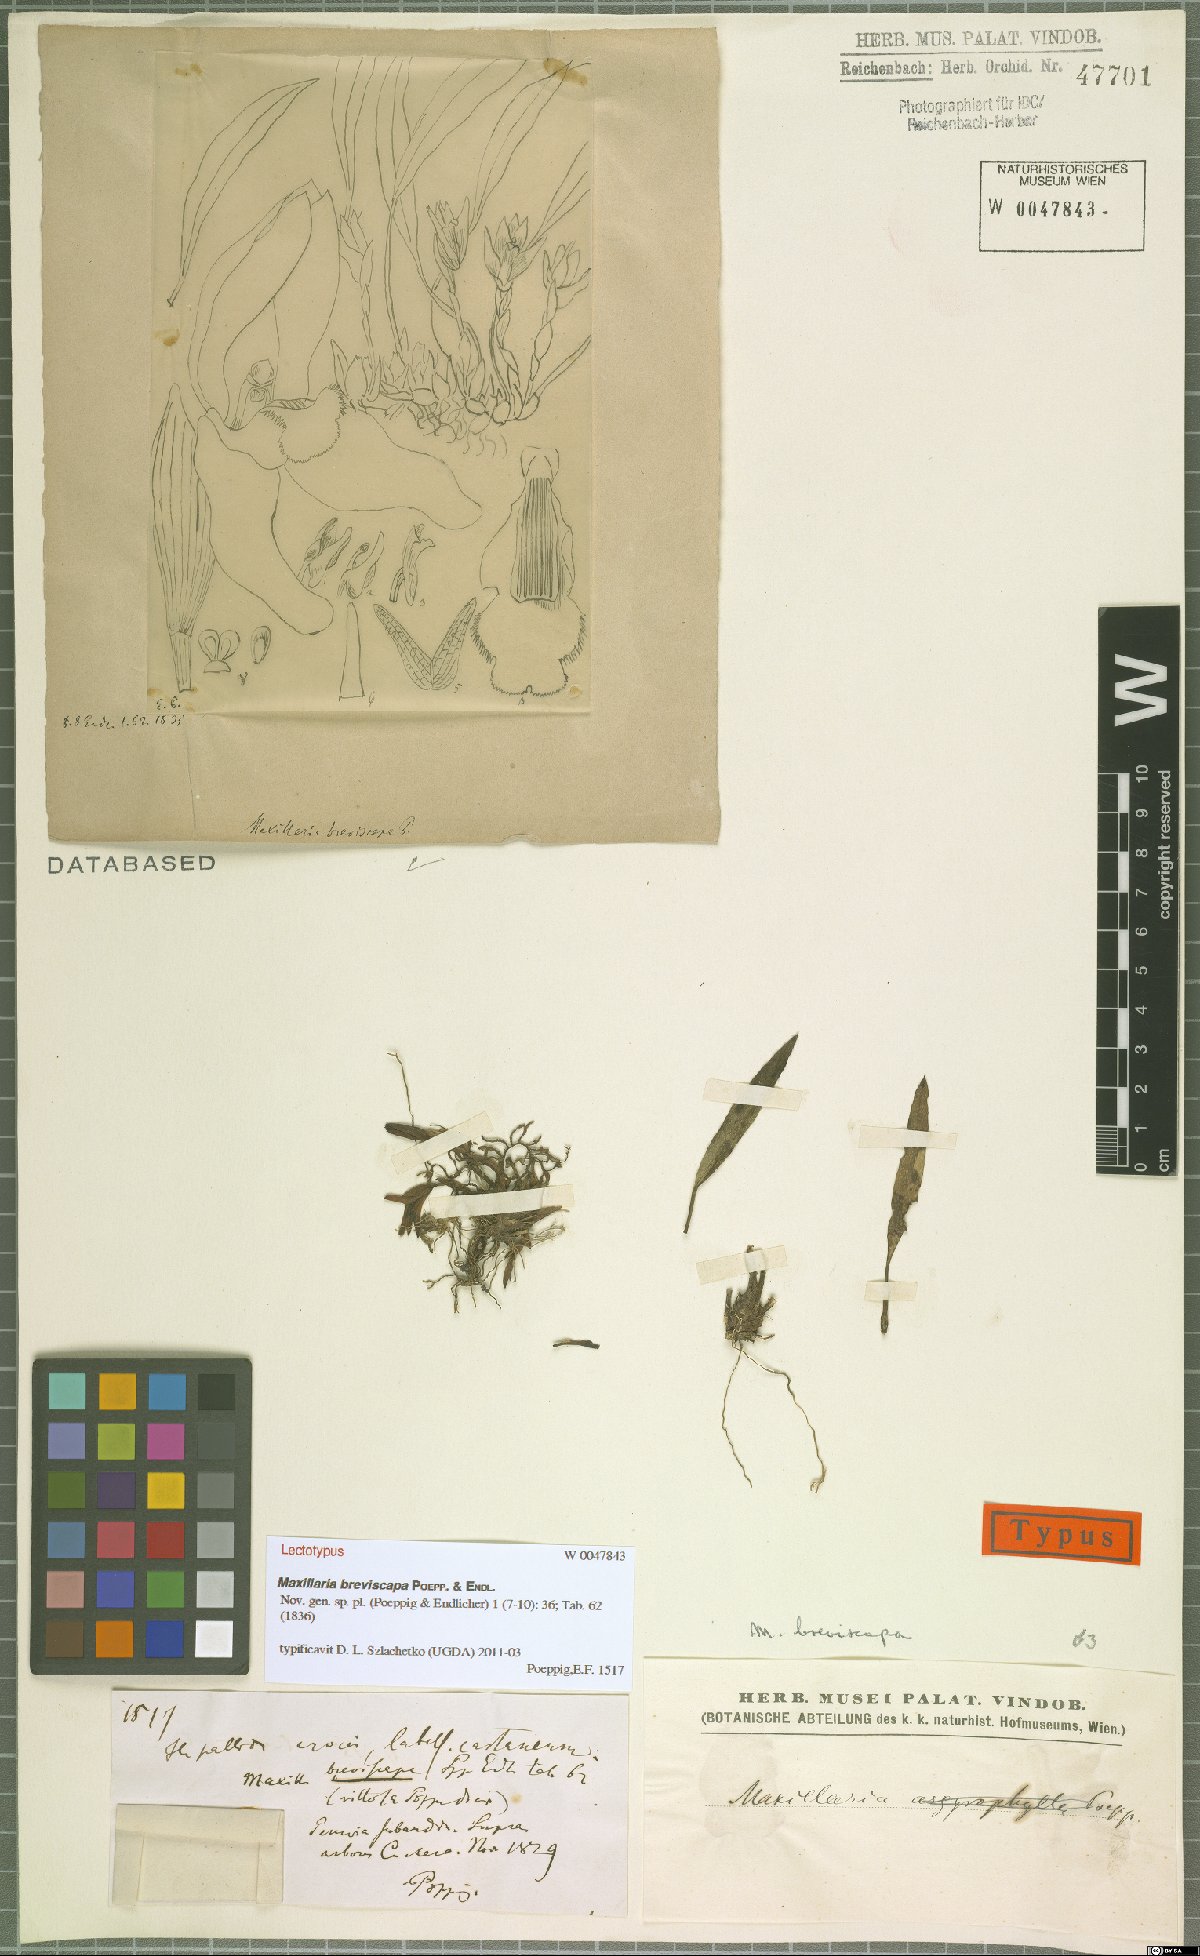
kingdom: Plantae
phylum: Tracheophyta
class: Liliopsida
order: Asparagales
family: Orchidaceae
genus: Maxillaria
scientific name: Maxillaria breviscapa
